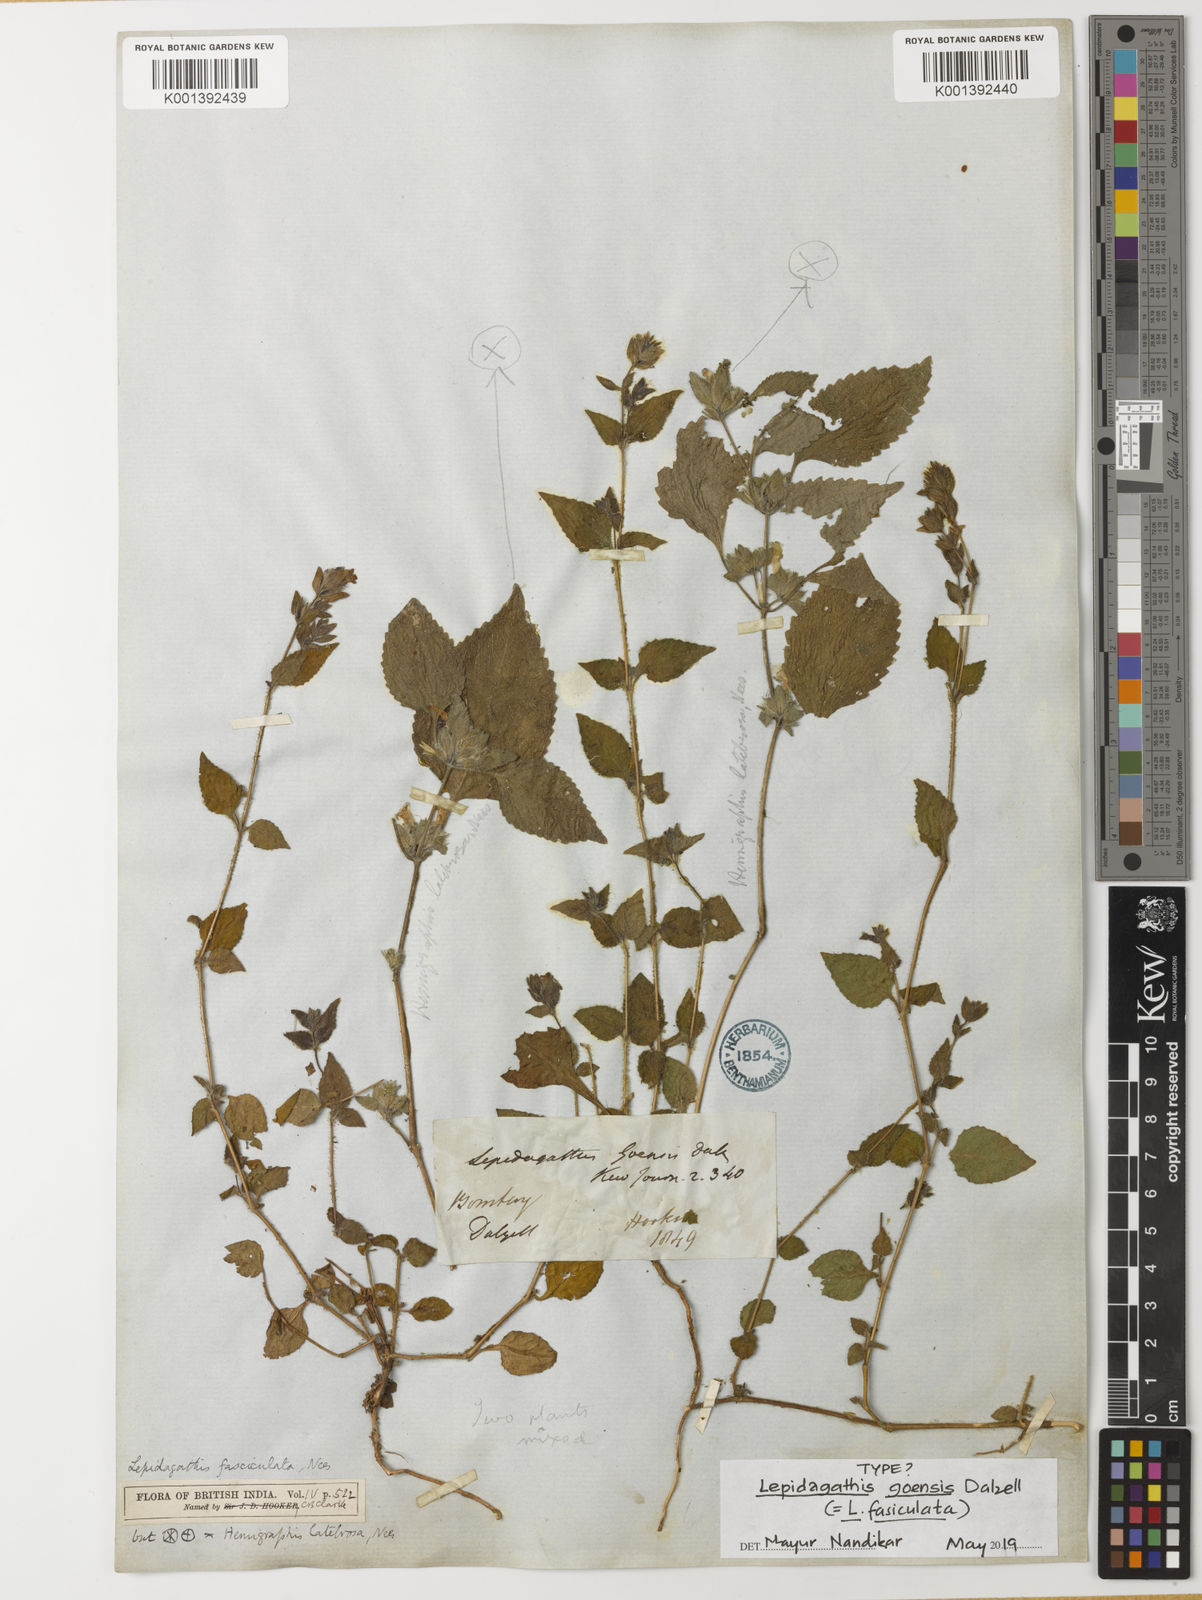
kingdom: Plantae
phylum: Tracheophyta
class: Magnoliopsida
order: Lamiales
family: Acanthaceae
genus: Lepidagathis
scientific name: Lepidagathis fasciculata
